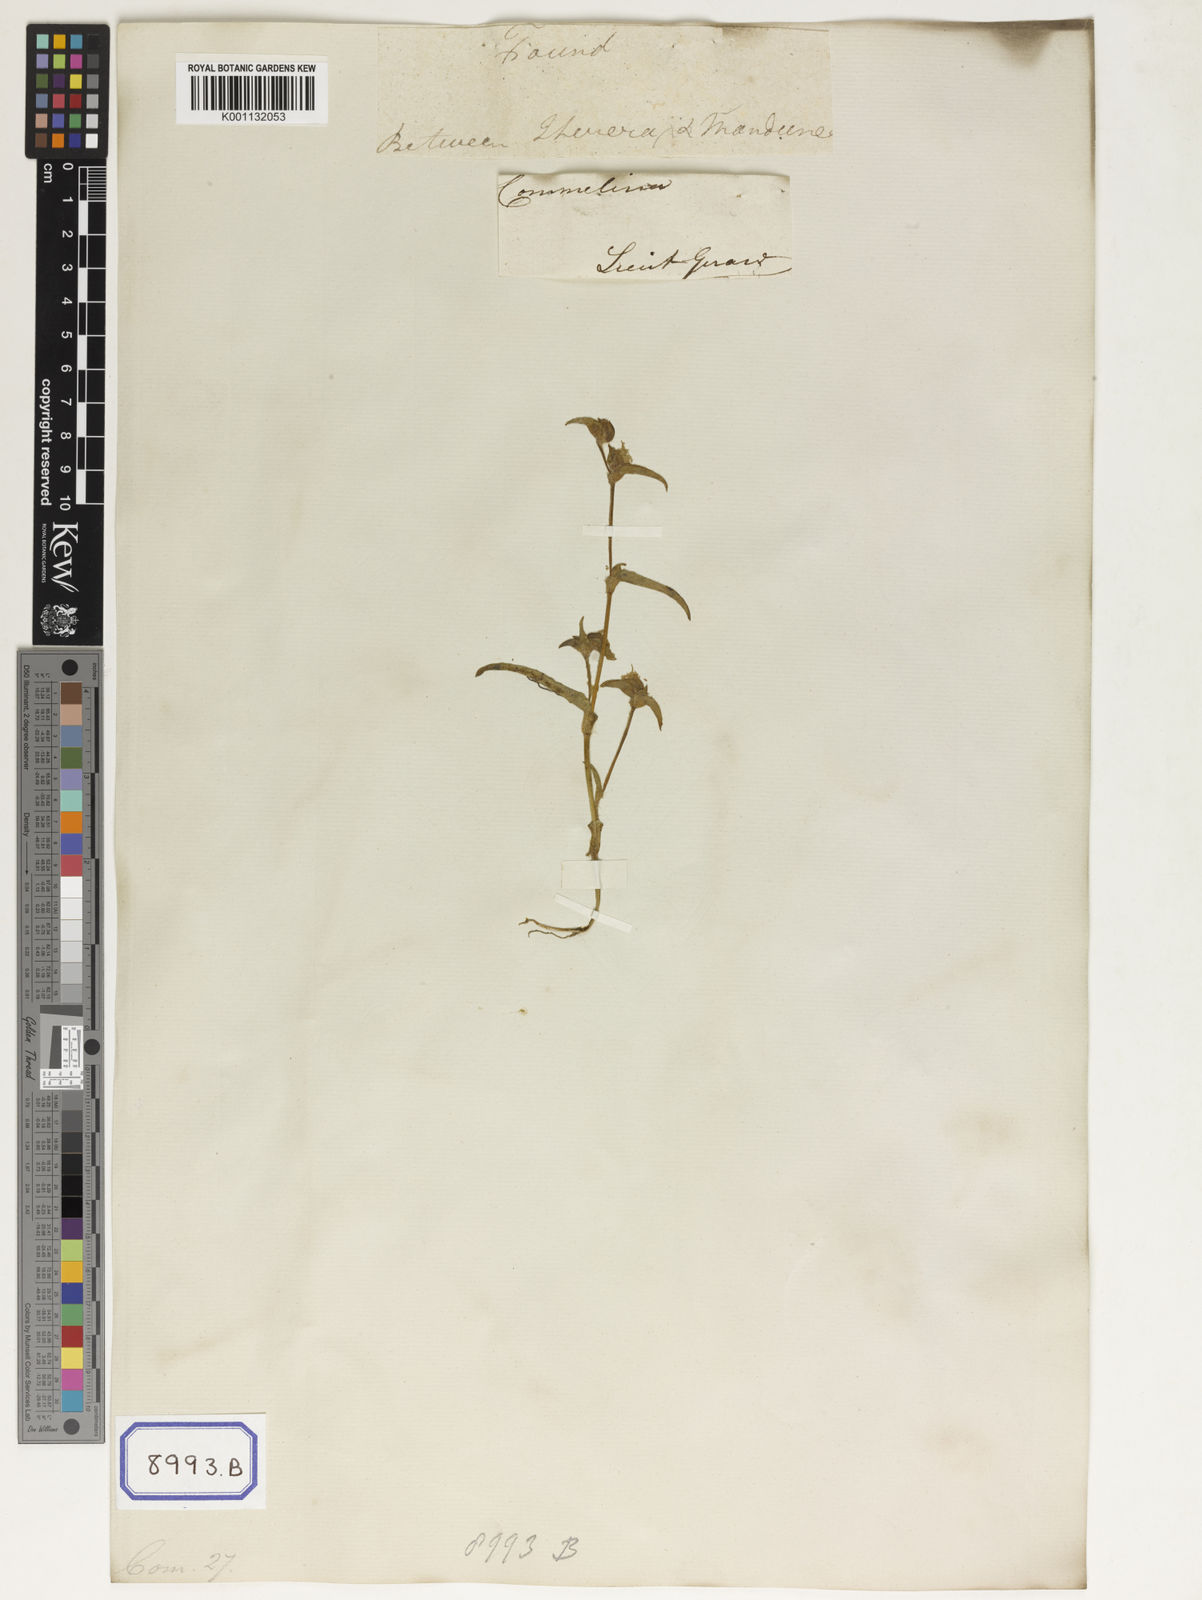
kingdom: Plantae
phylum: Tracheophyta
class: Liliopsida
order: Commelinales
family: Commelinaceae
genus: Cyanotis
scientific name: Cyanotis vaga
